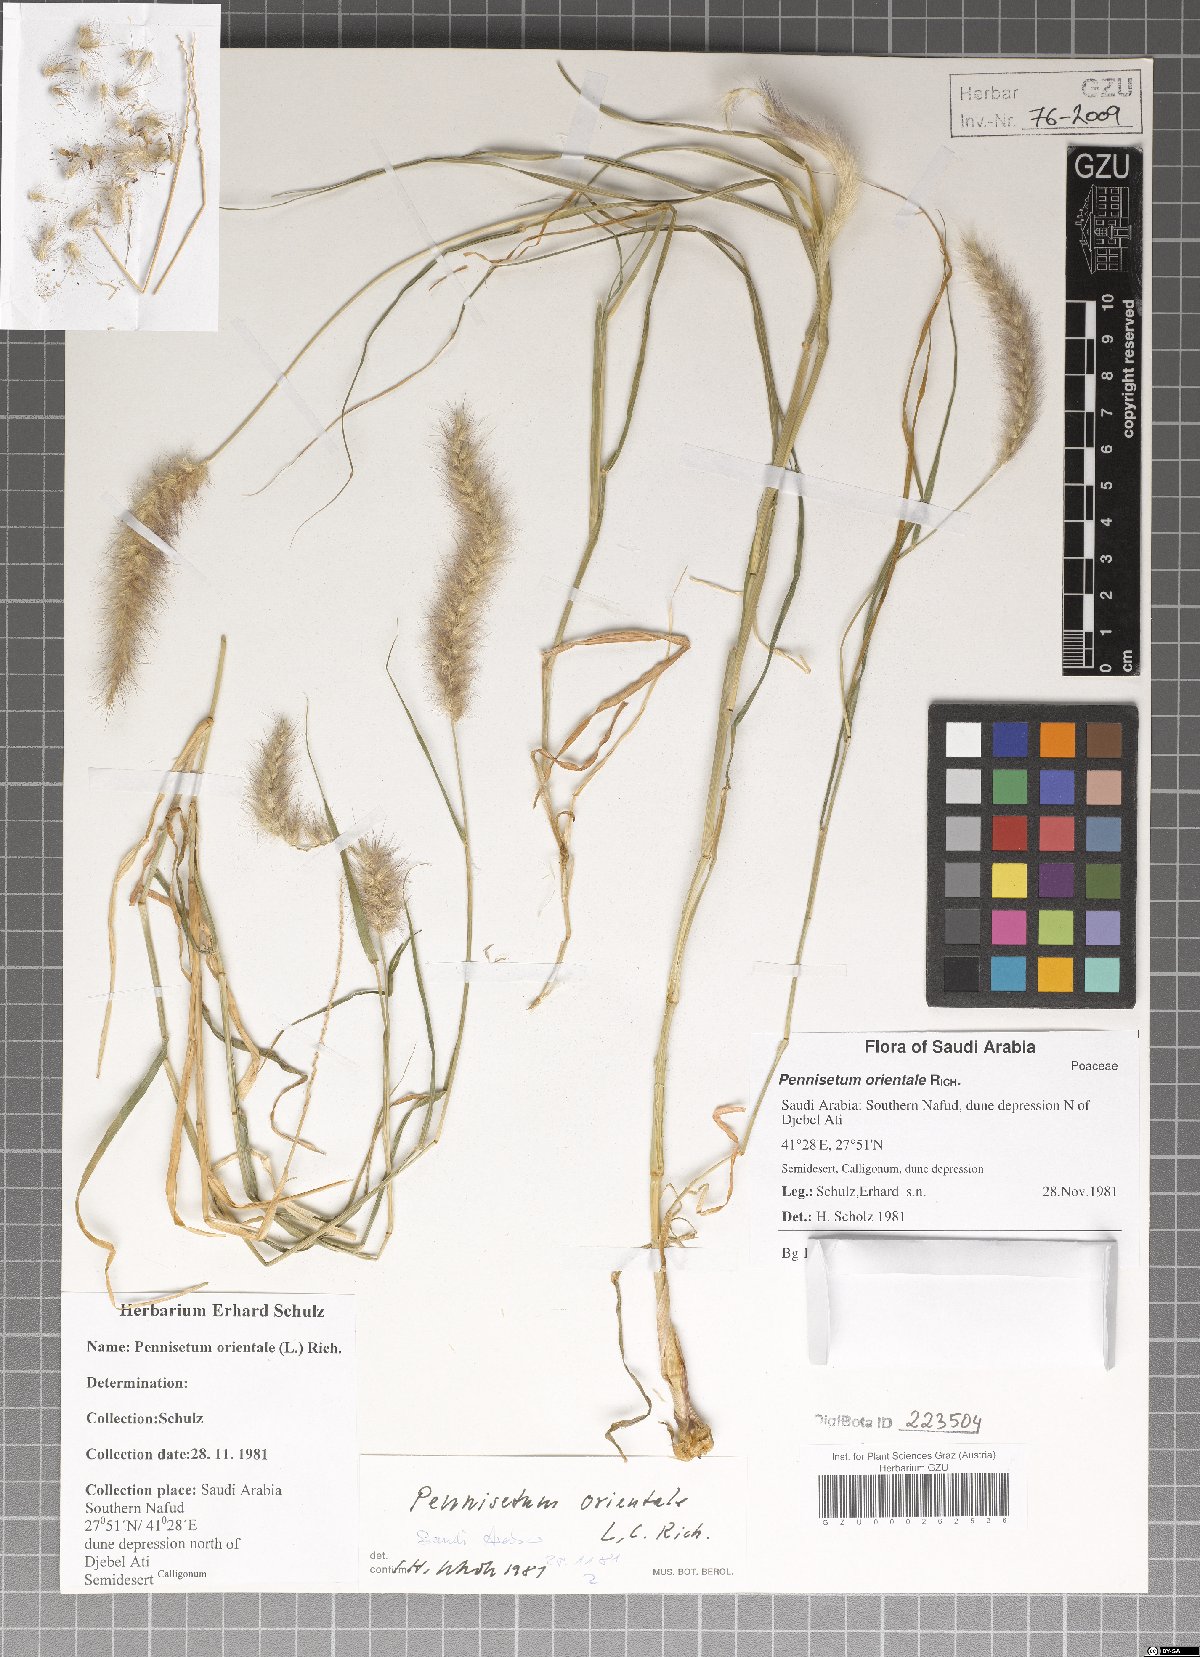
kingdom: Plantae
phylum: Tracheophyta
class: Liliopsida
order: Poales
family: Poaceae
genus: Cenchrus
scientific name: Cenchrus orientalis
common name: Oriental fountain grass
